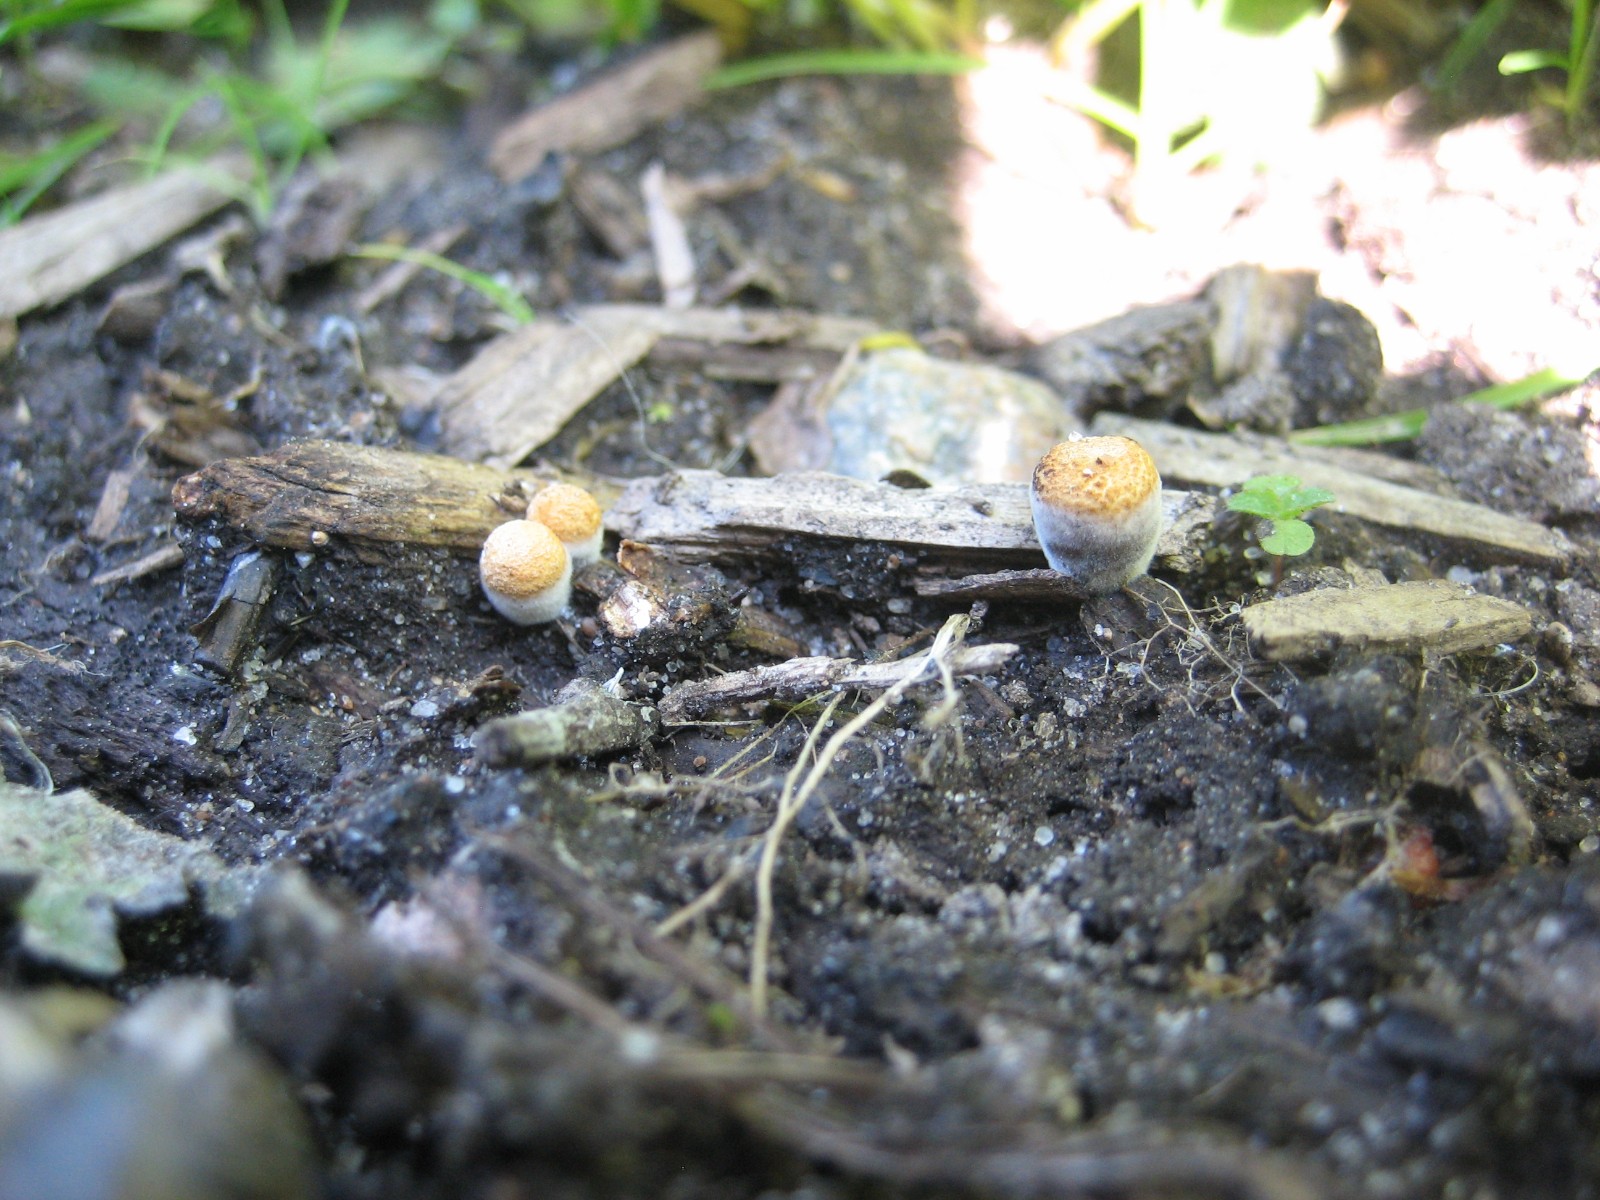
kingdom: Fungi
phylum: Basidiomycota
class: Agaricomycetes
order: Agaricales
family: Nidulariaceae
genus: Crucibulum
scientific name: Crucibulum crucibuliforme
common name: krukkesvamp
